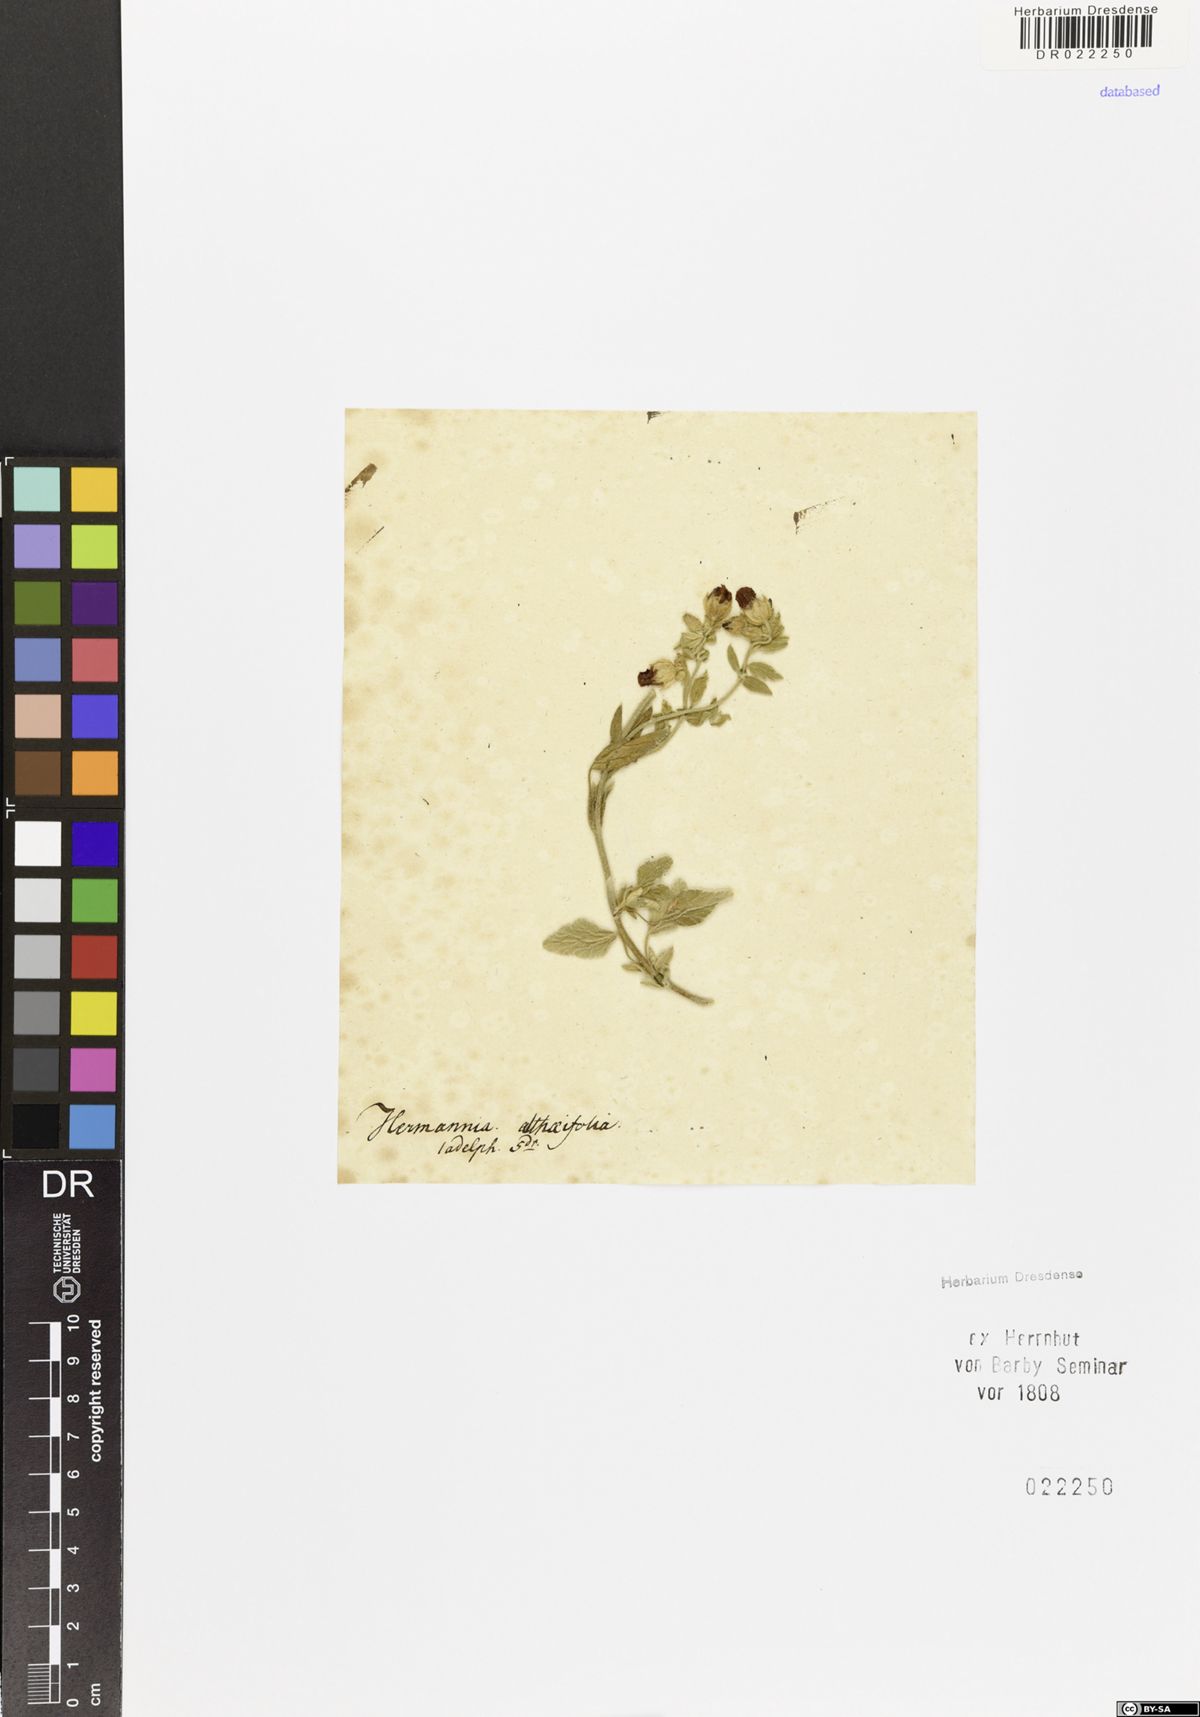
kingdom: Plantae
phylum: Tracheophyta
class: Magnoliopsida
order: Malvales
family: Malvaceae
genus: Hermannia
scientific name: Hermannia althaeifolia
